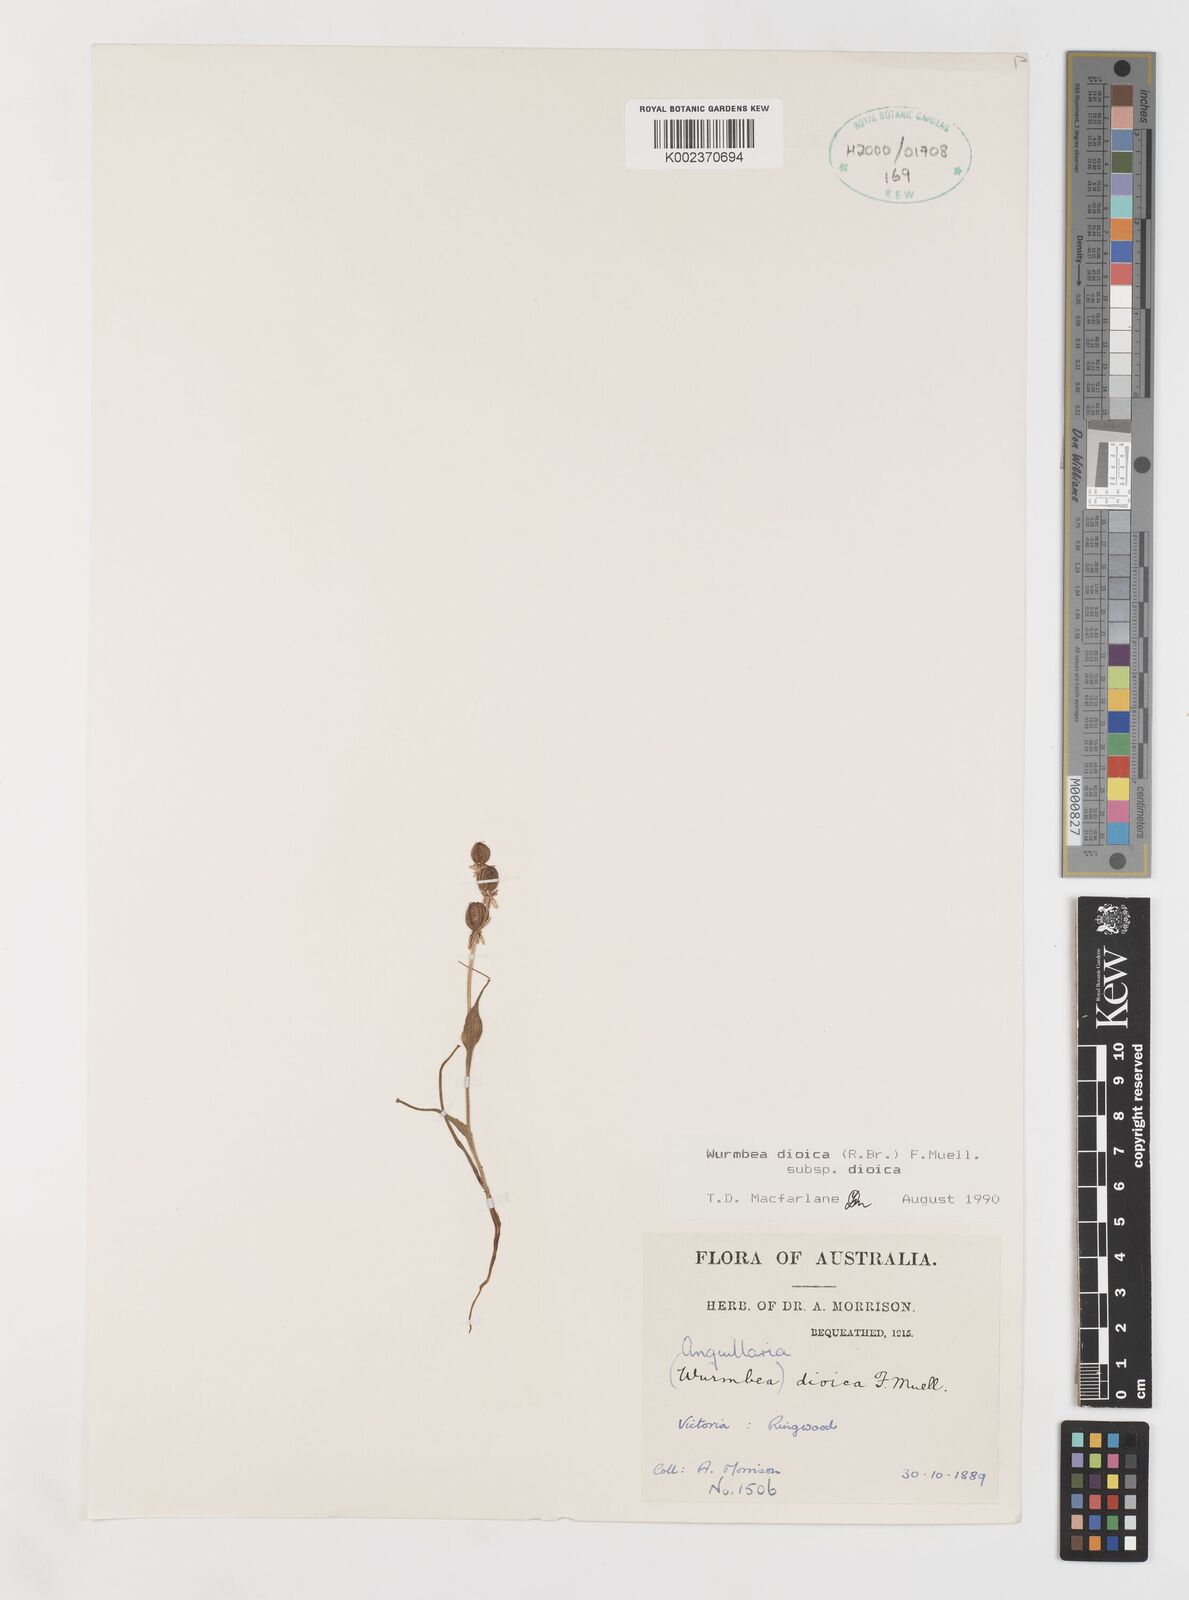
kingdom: Plantae
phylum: Tracheophyta
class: Liliopsida
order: Liliales
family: Colchicaceae
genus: Wurmbea
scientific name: Wurmbea dioica
